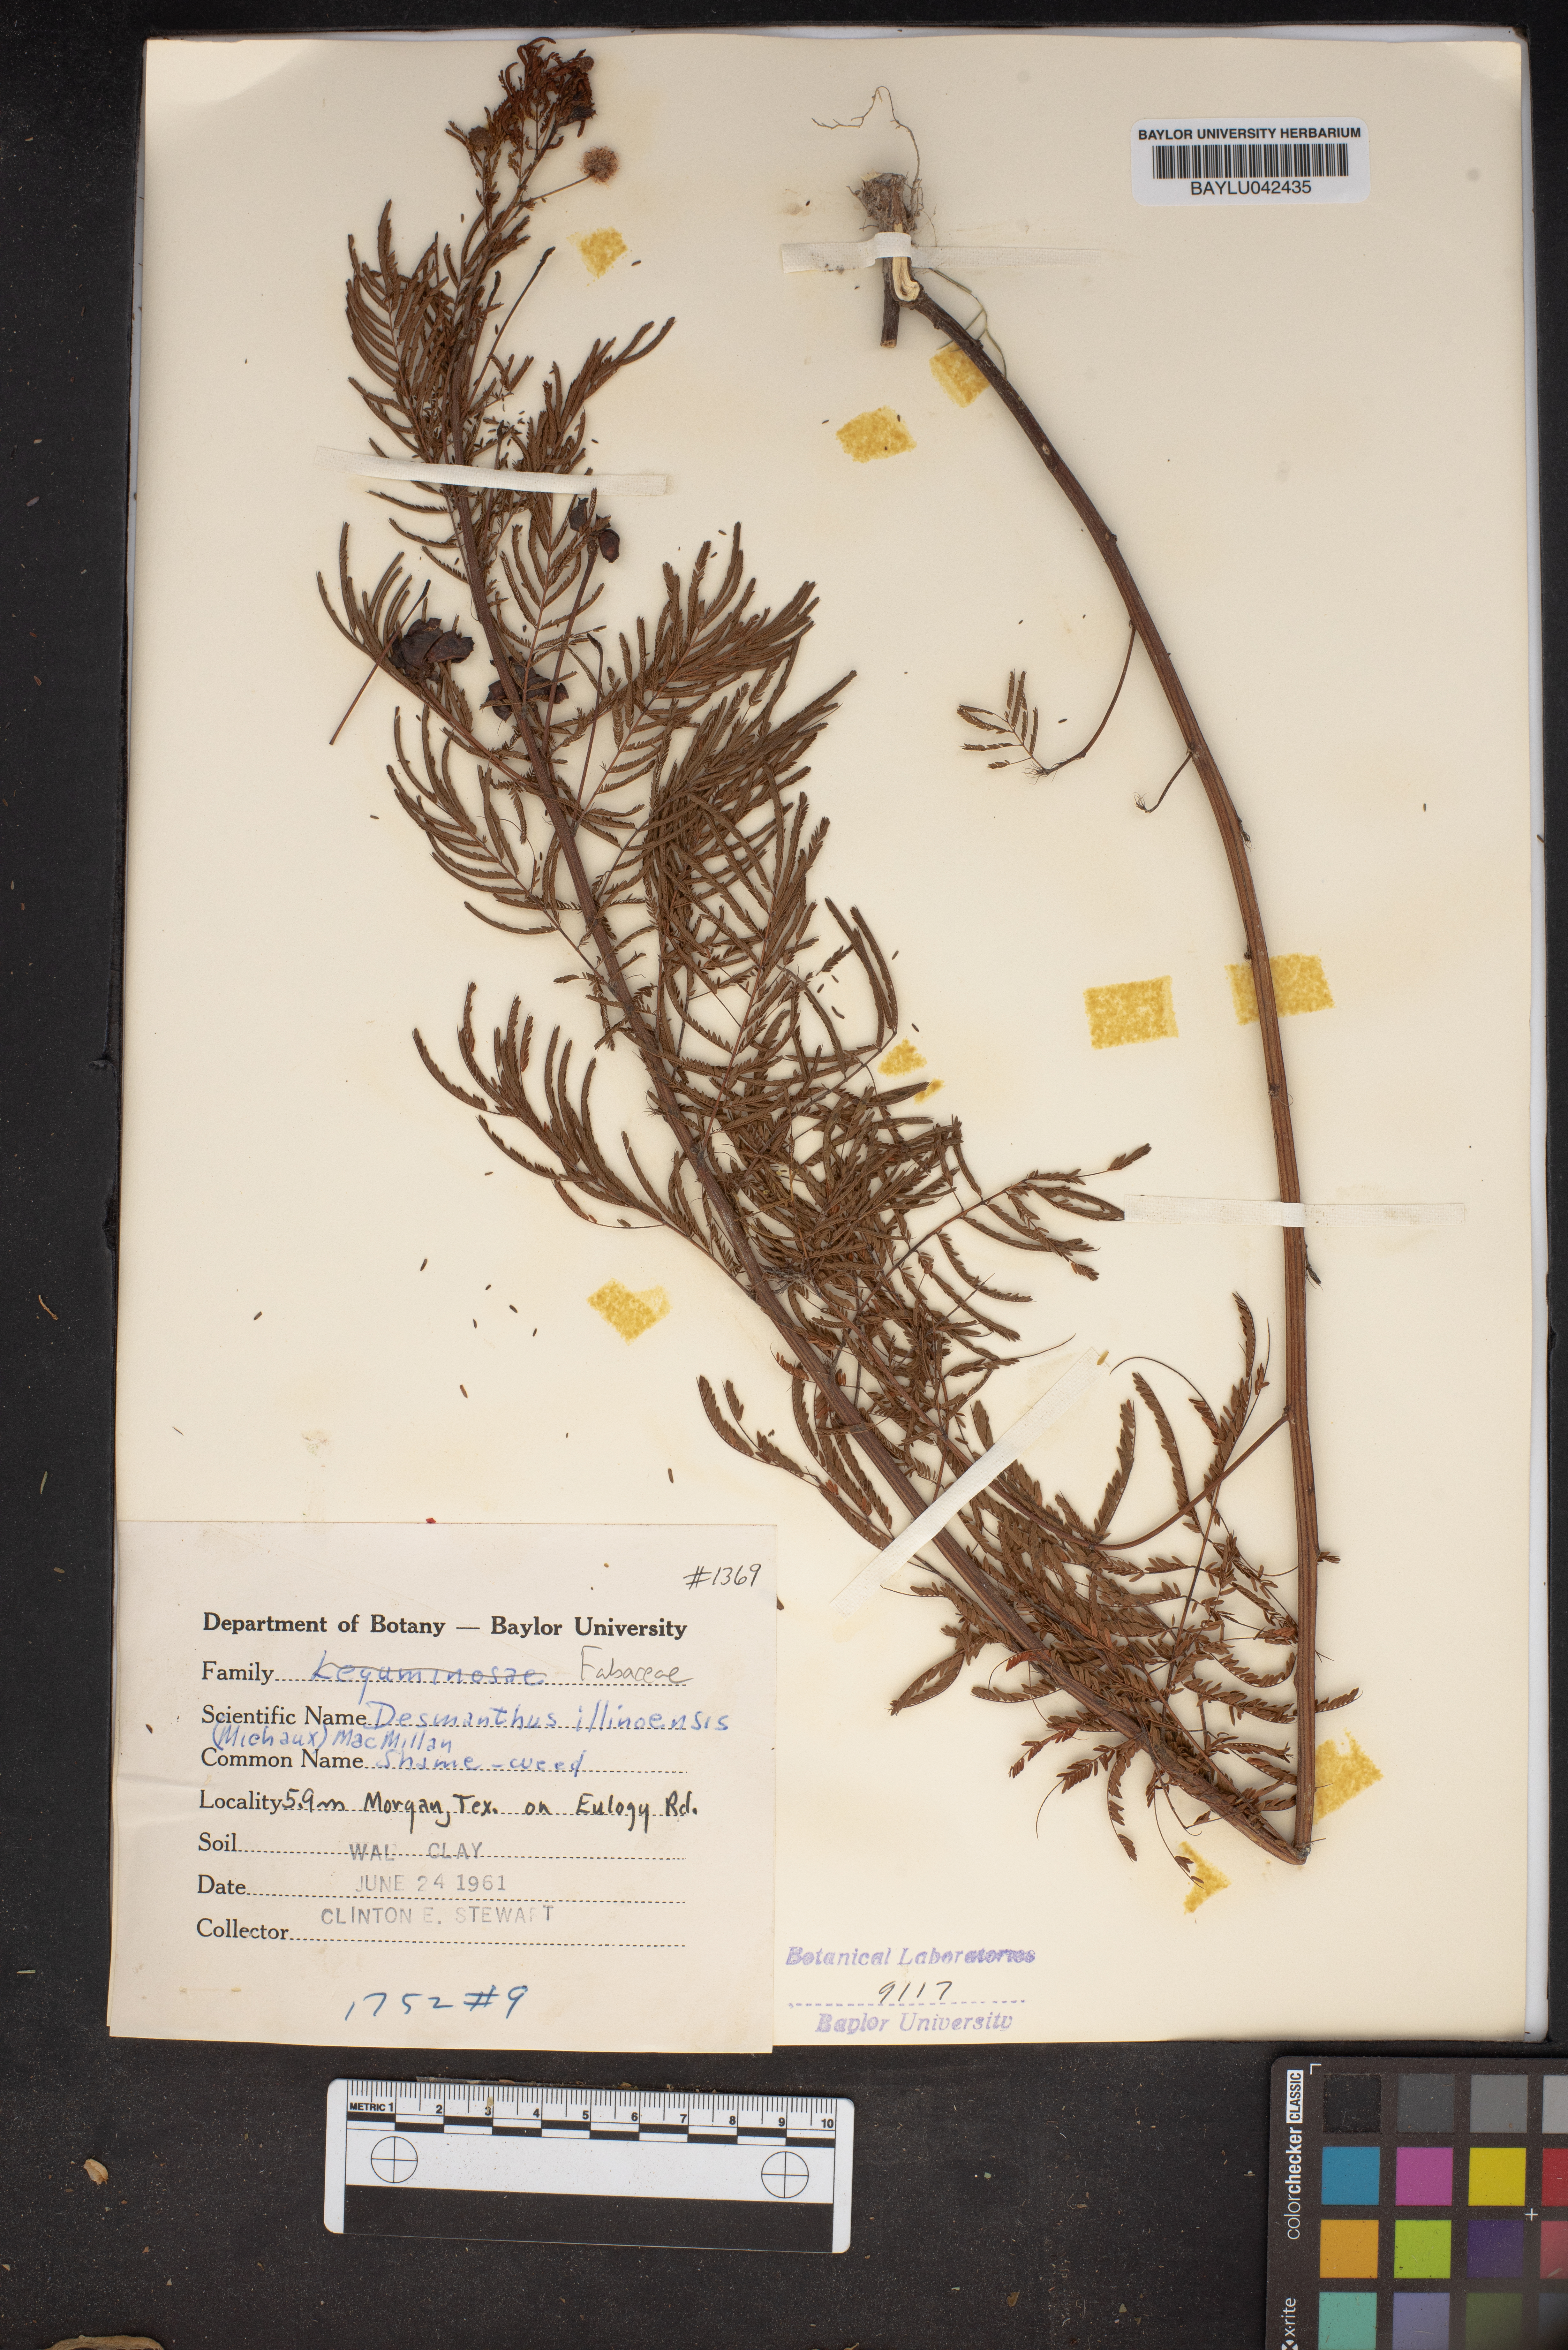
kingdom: Plantae
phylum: Tracheophyta
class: Magnoliopsida
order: Fabales
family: Fabaceae
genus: Desmanthus
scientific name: Desmanthus illinoensis
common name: Illinois bundle-flower
